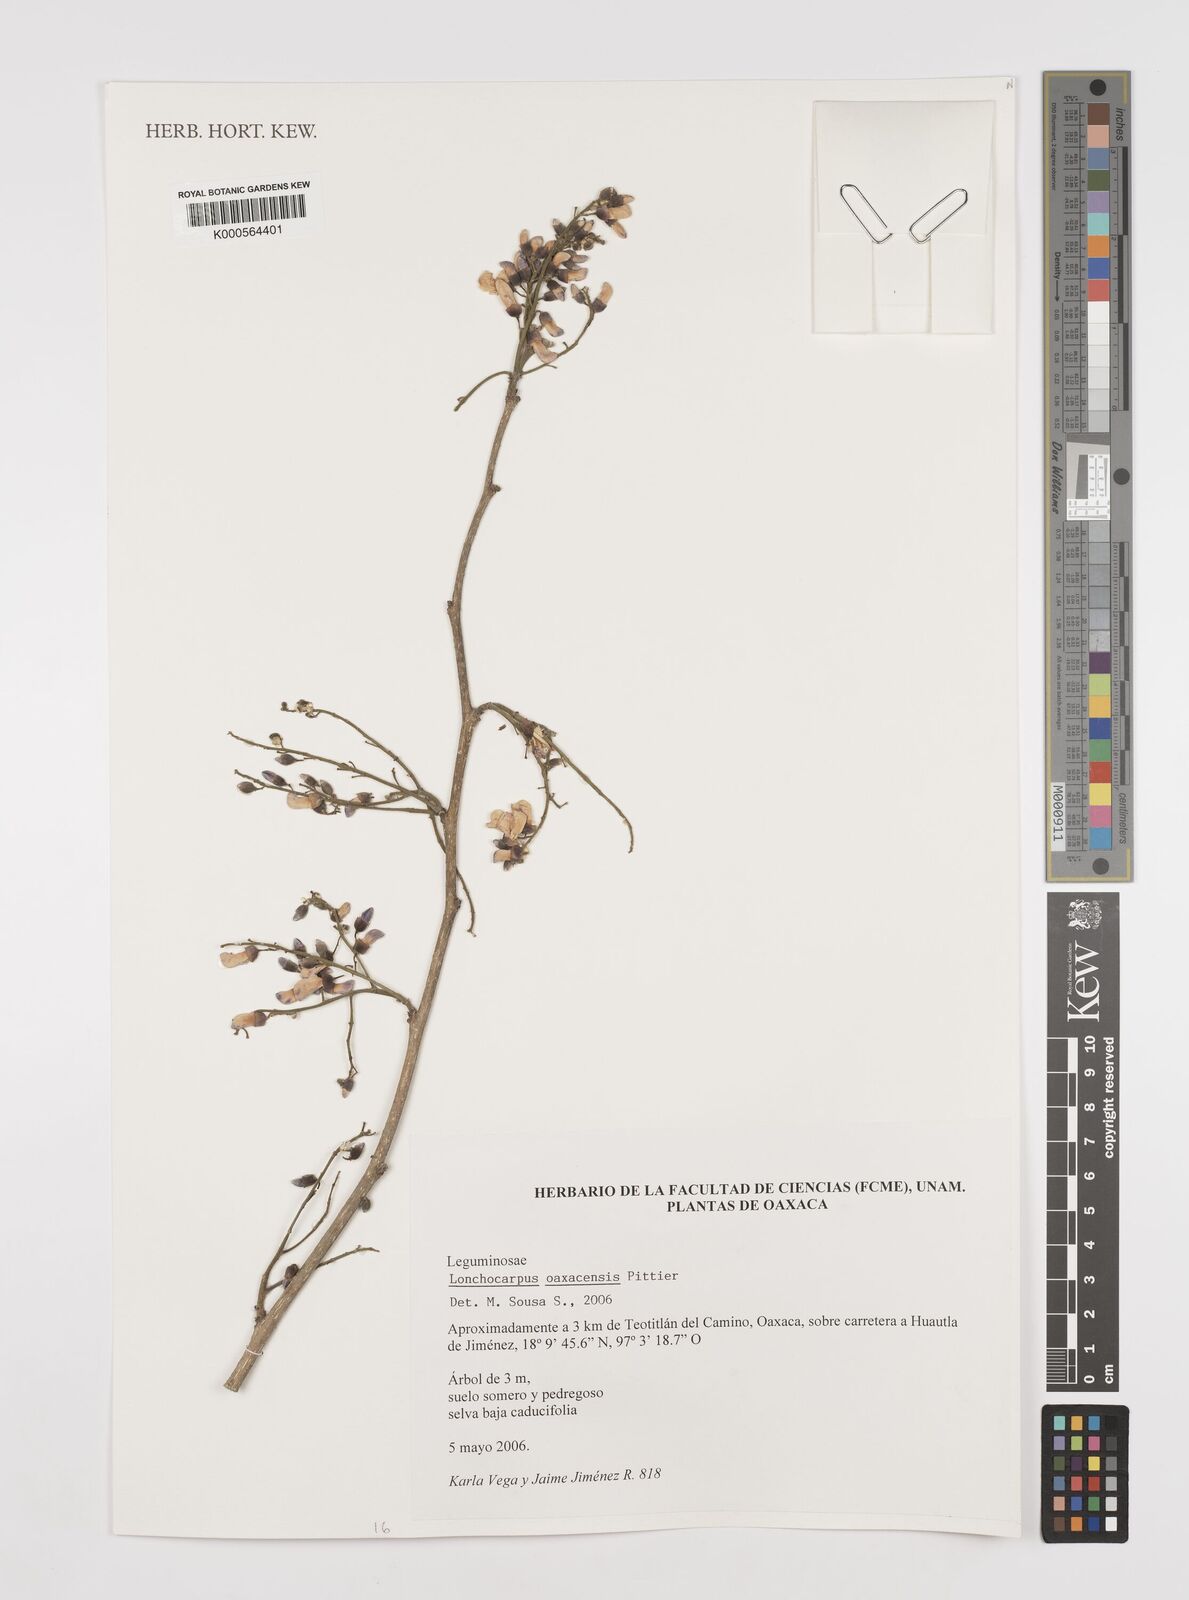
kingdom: Plantae
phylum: Tracheophyta
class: Magnoliopsida
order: Fabales
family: Fabaceae
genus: Lonchocarpus
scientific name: Lonchocarpus oaxacensis
